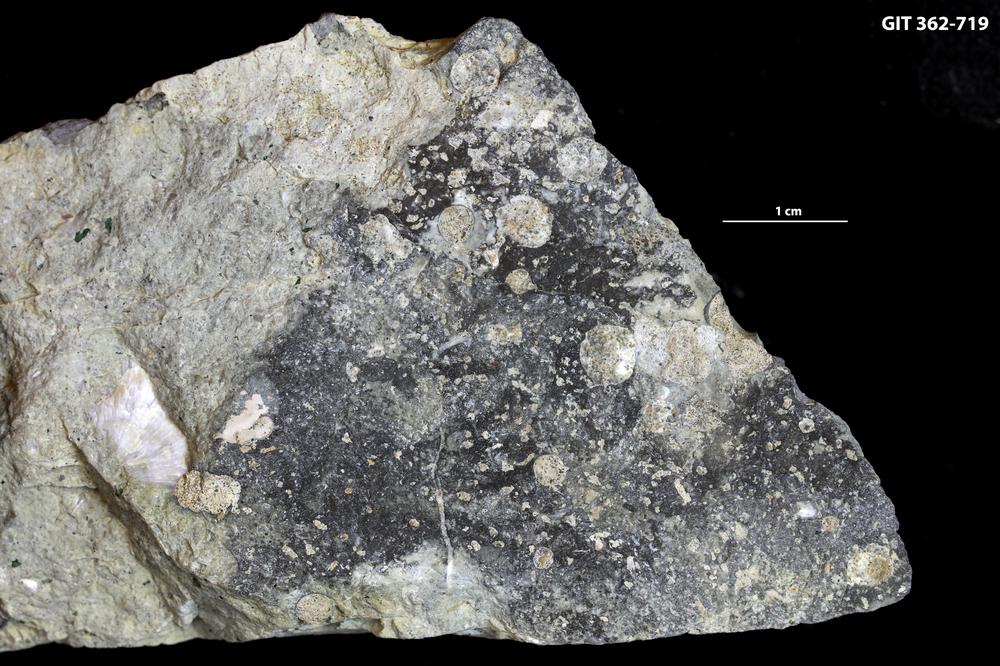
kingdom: Animalia
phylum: Sipuncula
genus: Trypanites
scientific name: Trypanites
